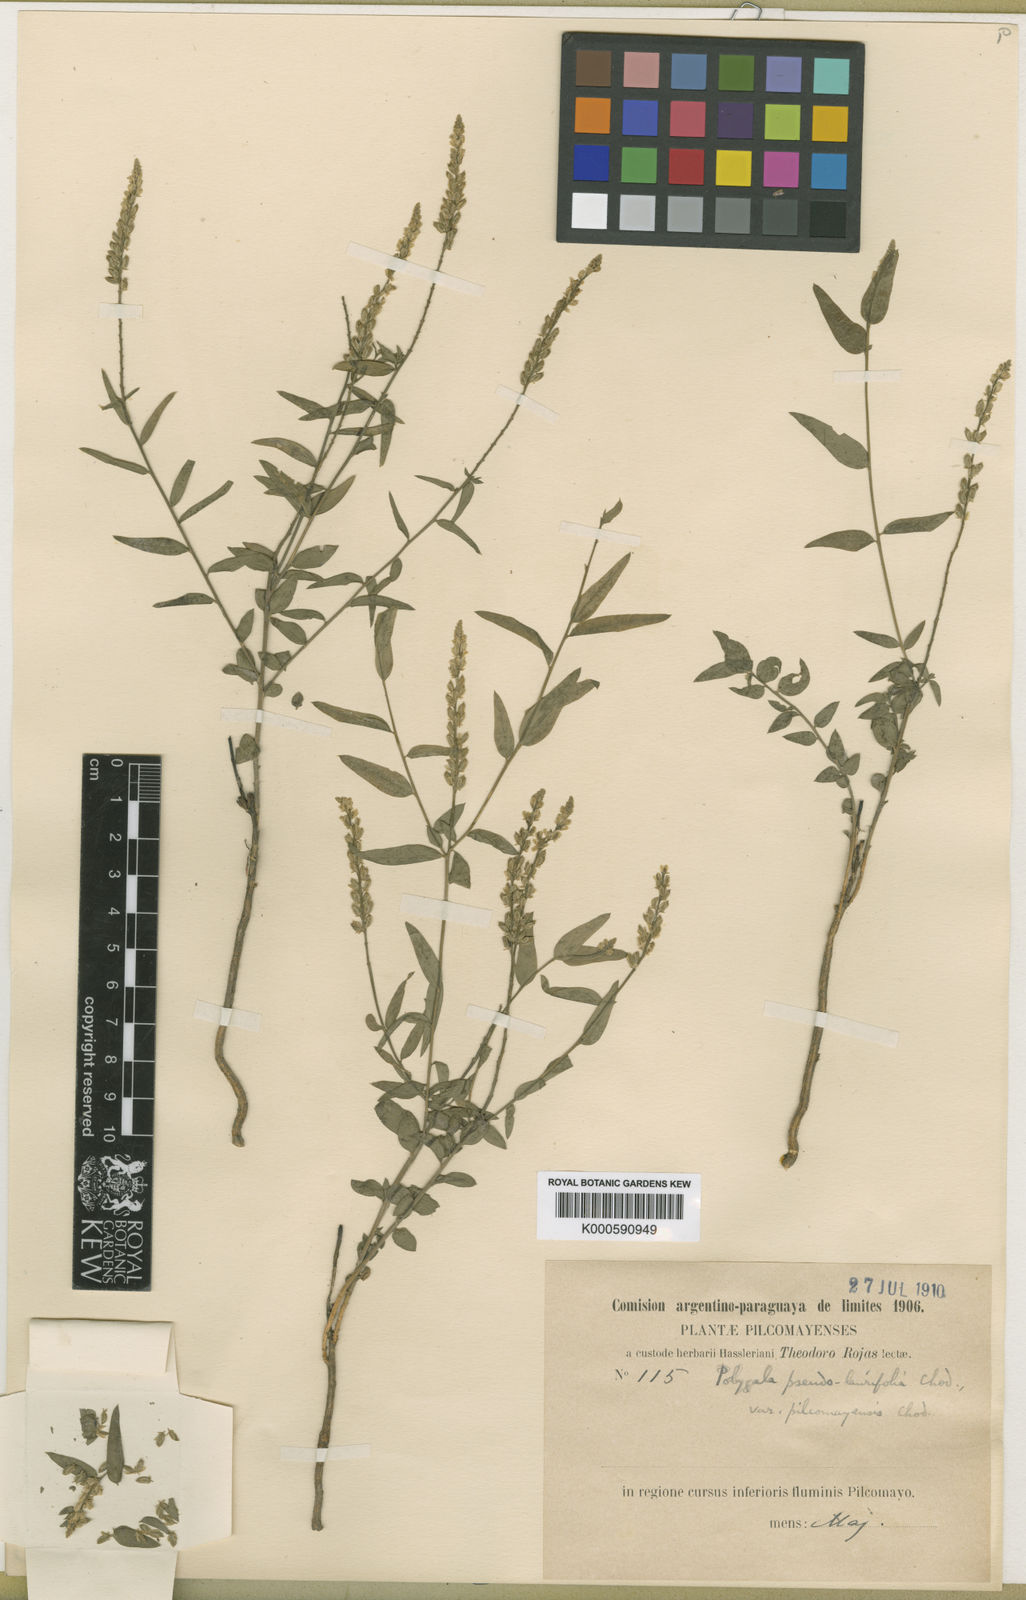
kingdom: Plantae
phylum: Tracheophyta
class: Magnoliopsida
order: Fabales
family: Polygalaceae
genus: Polygala
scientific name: Polygala duarteana
